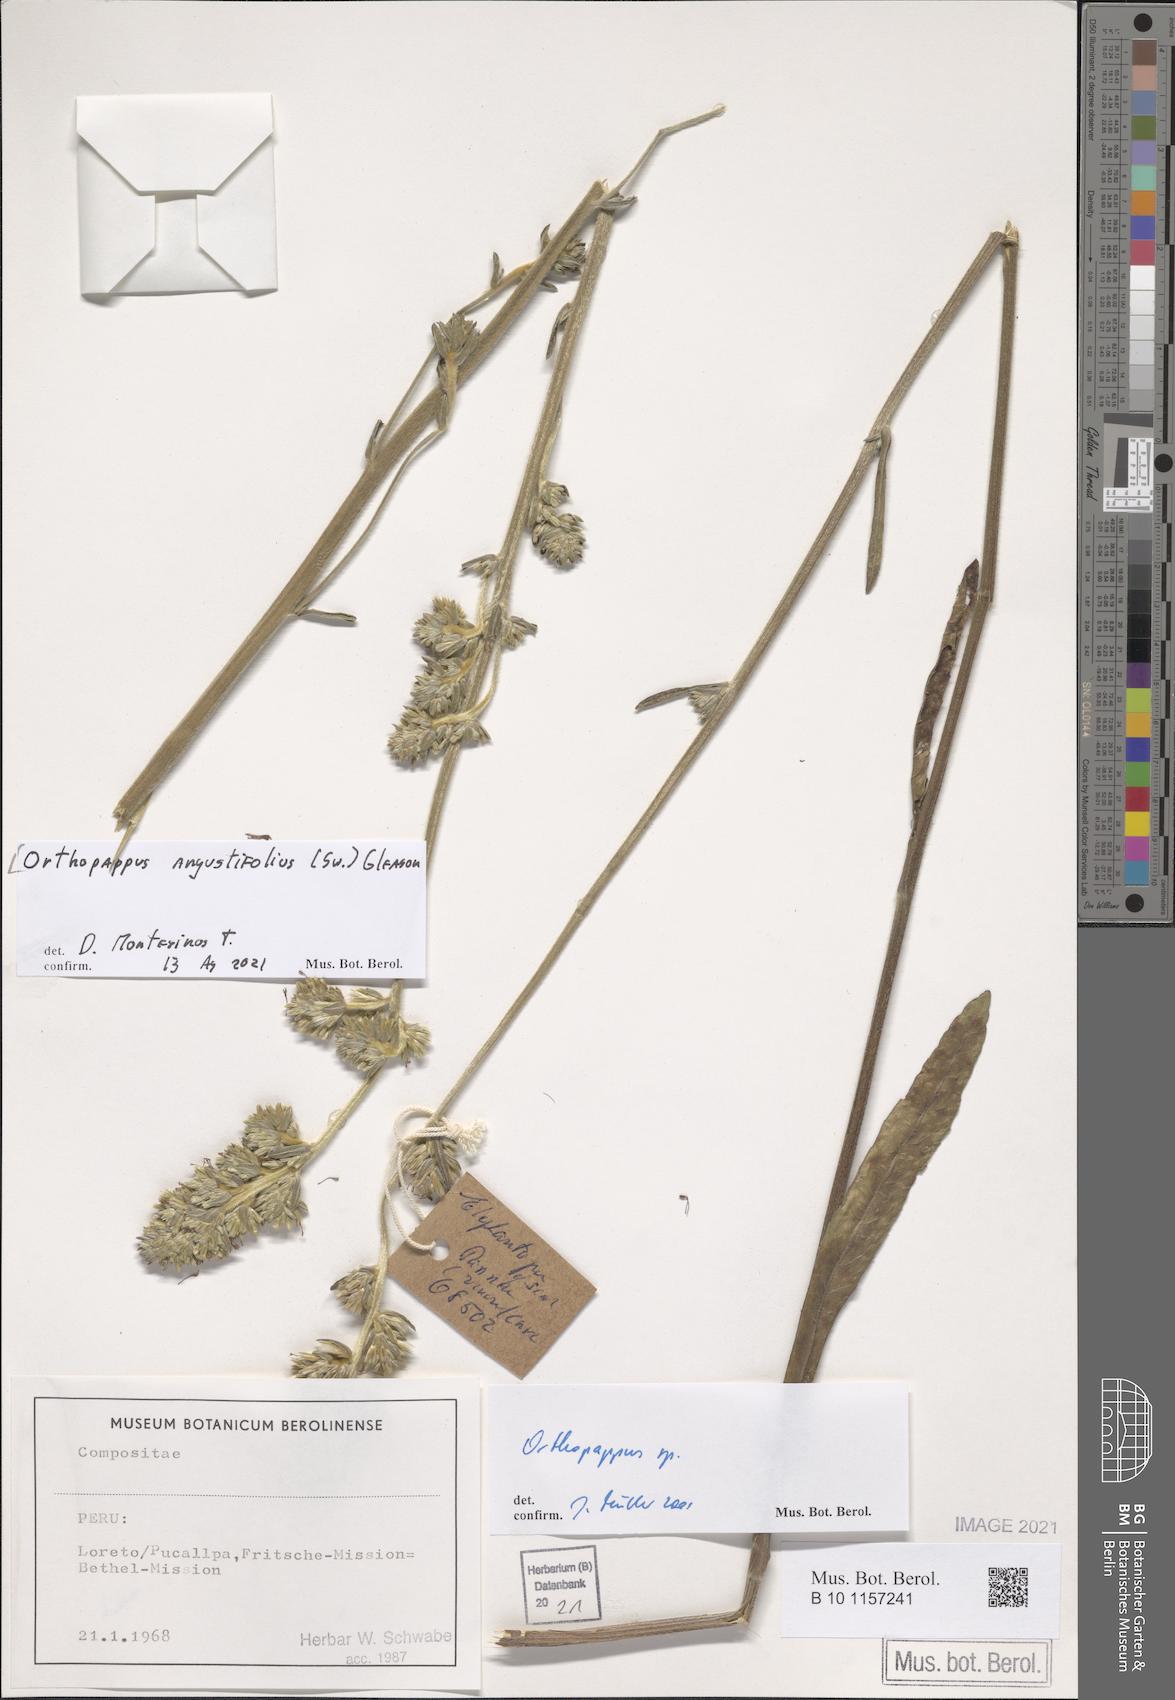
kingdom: Plantae
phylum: Tracheophyta
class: Magnoliopsida
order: Asterales
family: Asteraceae
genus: Orthopappus
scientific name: Orthopappus angustifolius
